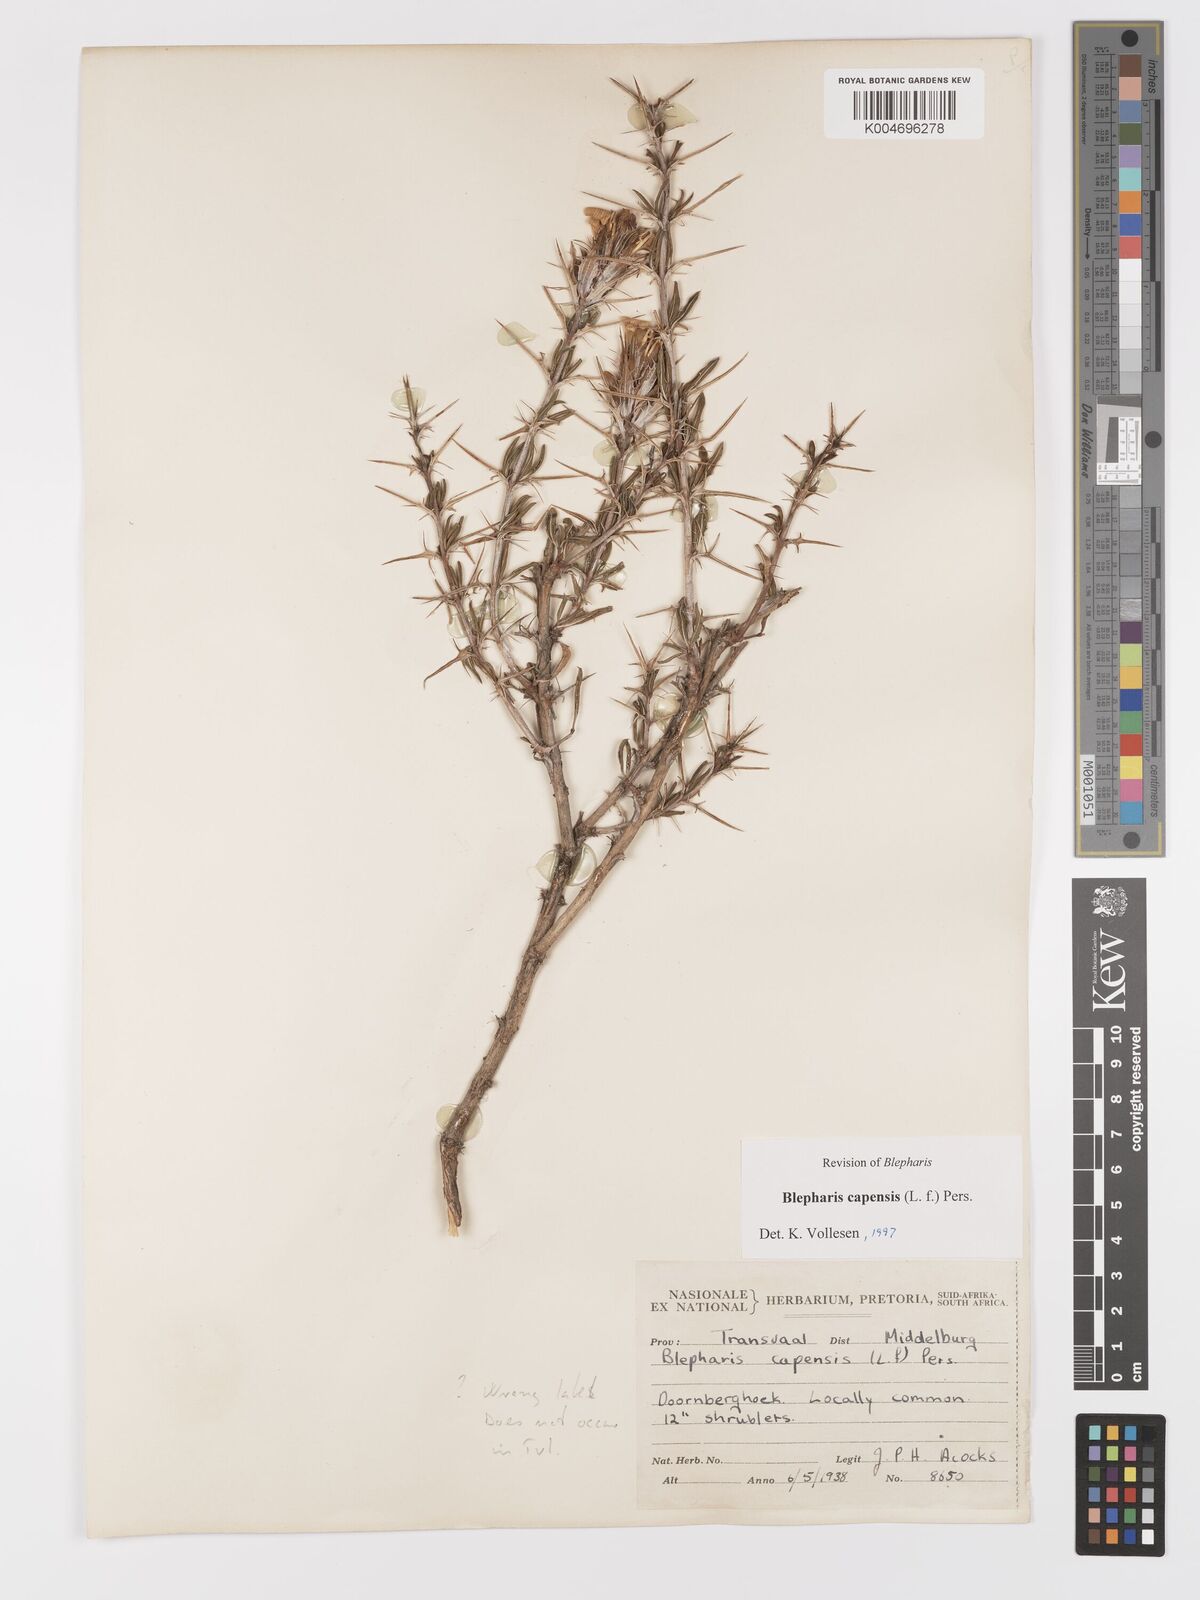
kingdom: Plantae
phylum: Tracheophyta
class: Magnoliopsida
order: Lamiales
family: Acanthaceae
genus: Blepharis
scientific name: Blepharis capensis
